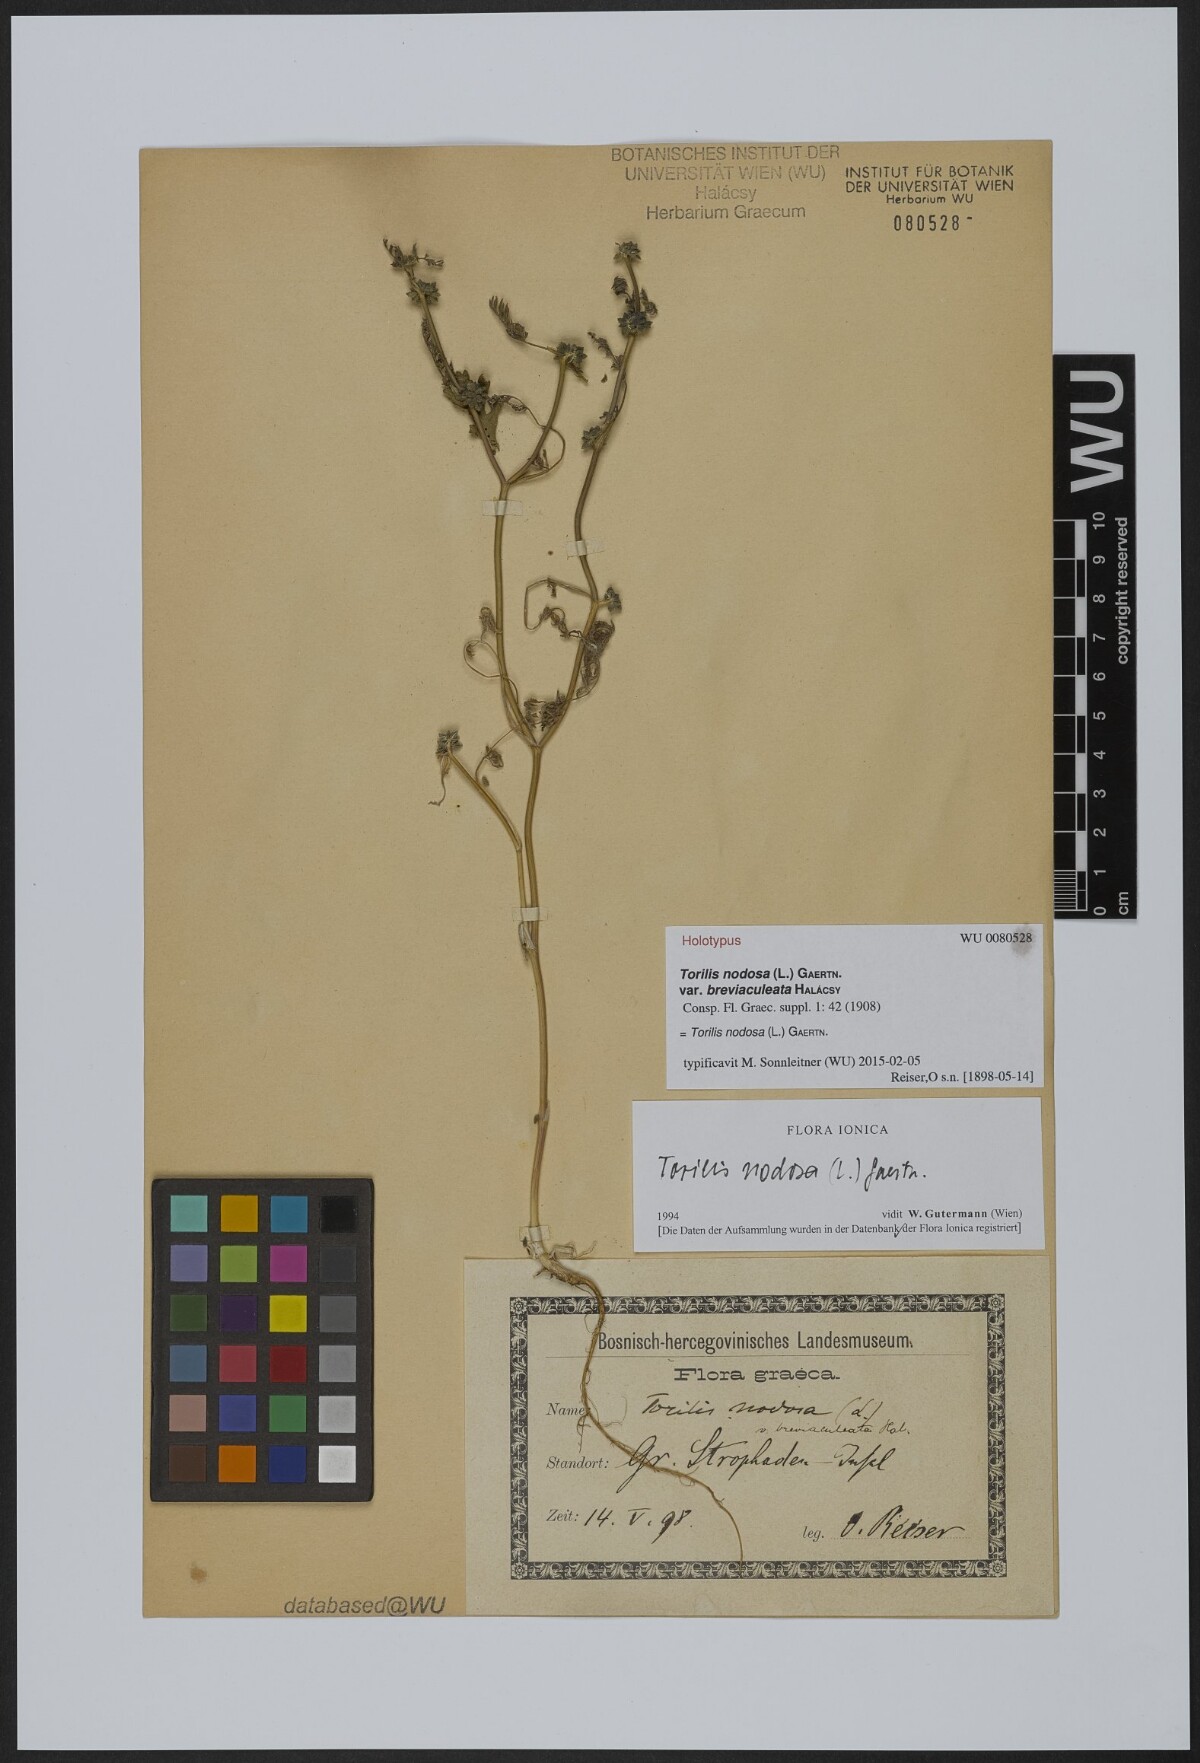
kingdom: Plantae
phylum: Tracheophyta
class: Magnoliopsida
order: Apiales
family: Apiaceae
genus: Torilis
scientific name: Torilis nodosa
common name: Knotted hedge-parsley
